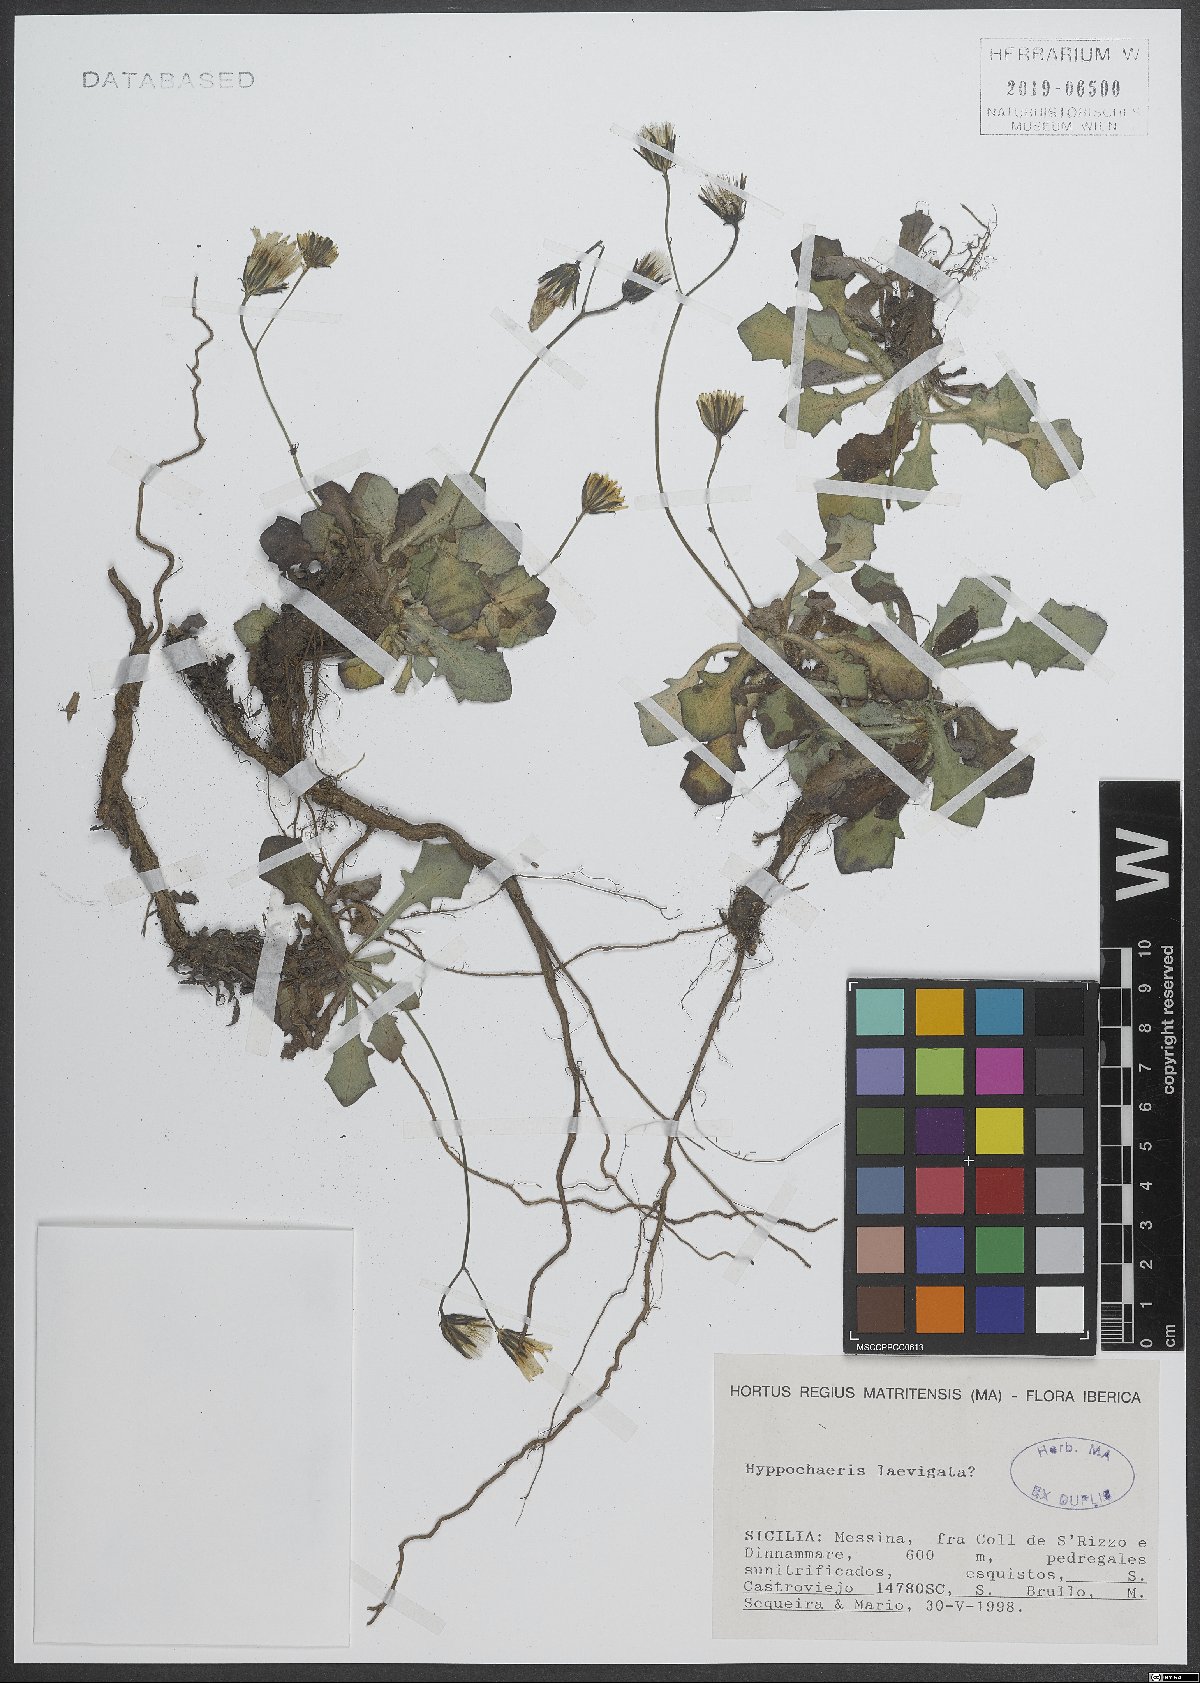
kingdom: Plantae
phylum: Tracheophyta
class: Magnoliopsida
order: Asterales
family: Asteraceae
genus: Achyrophorus
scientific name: Achyrophorus laevigatus
